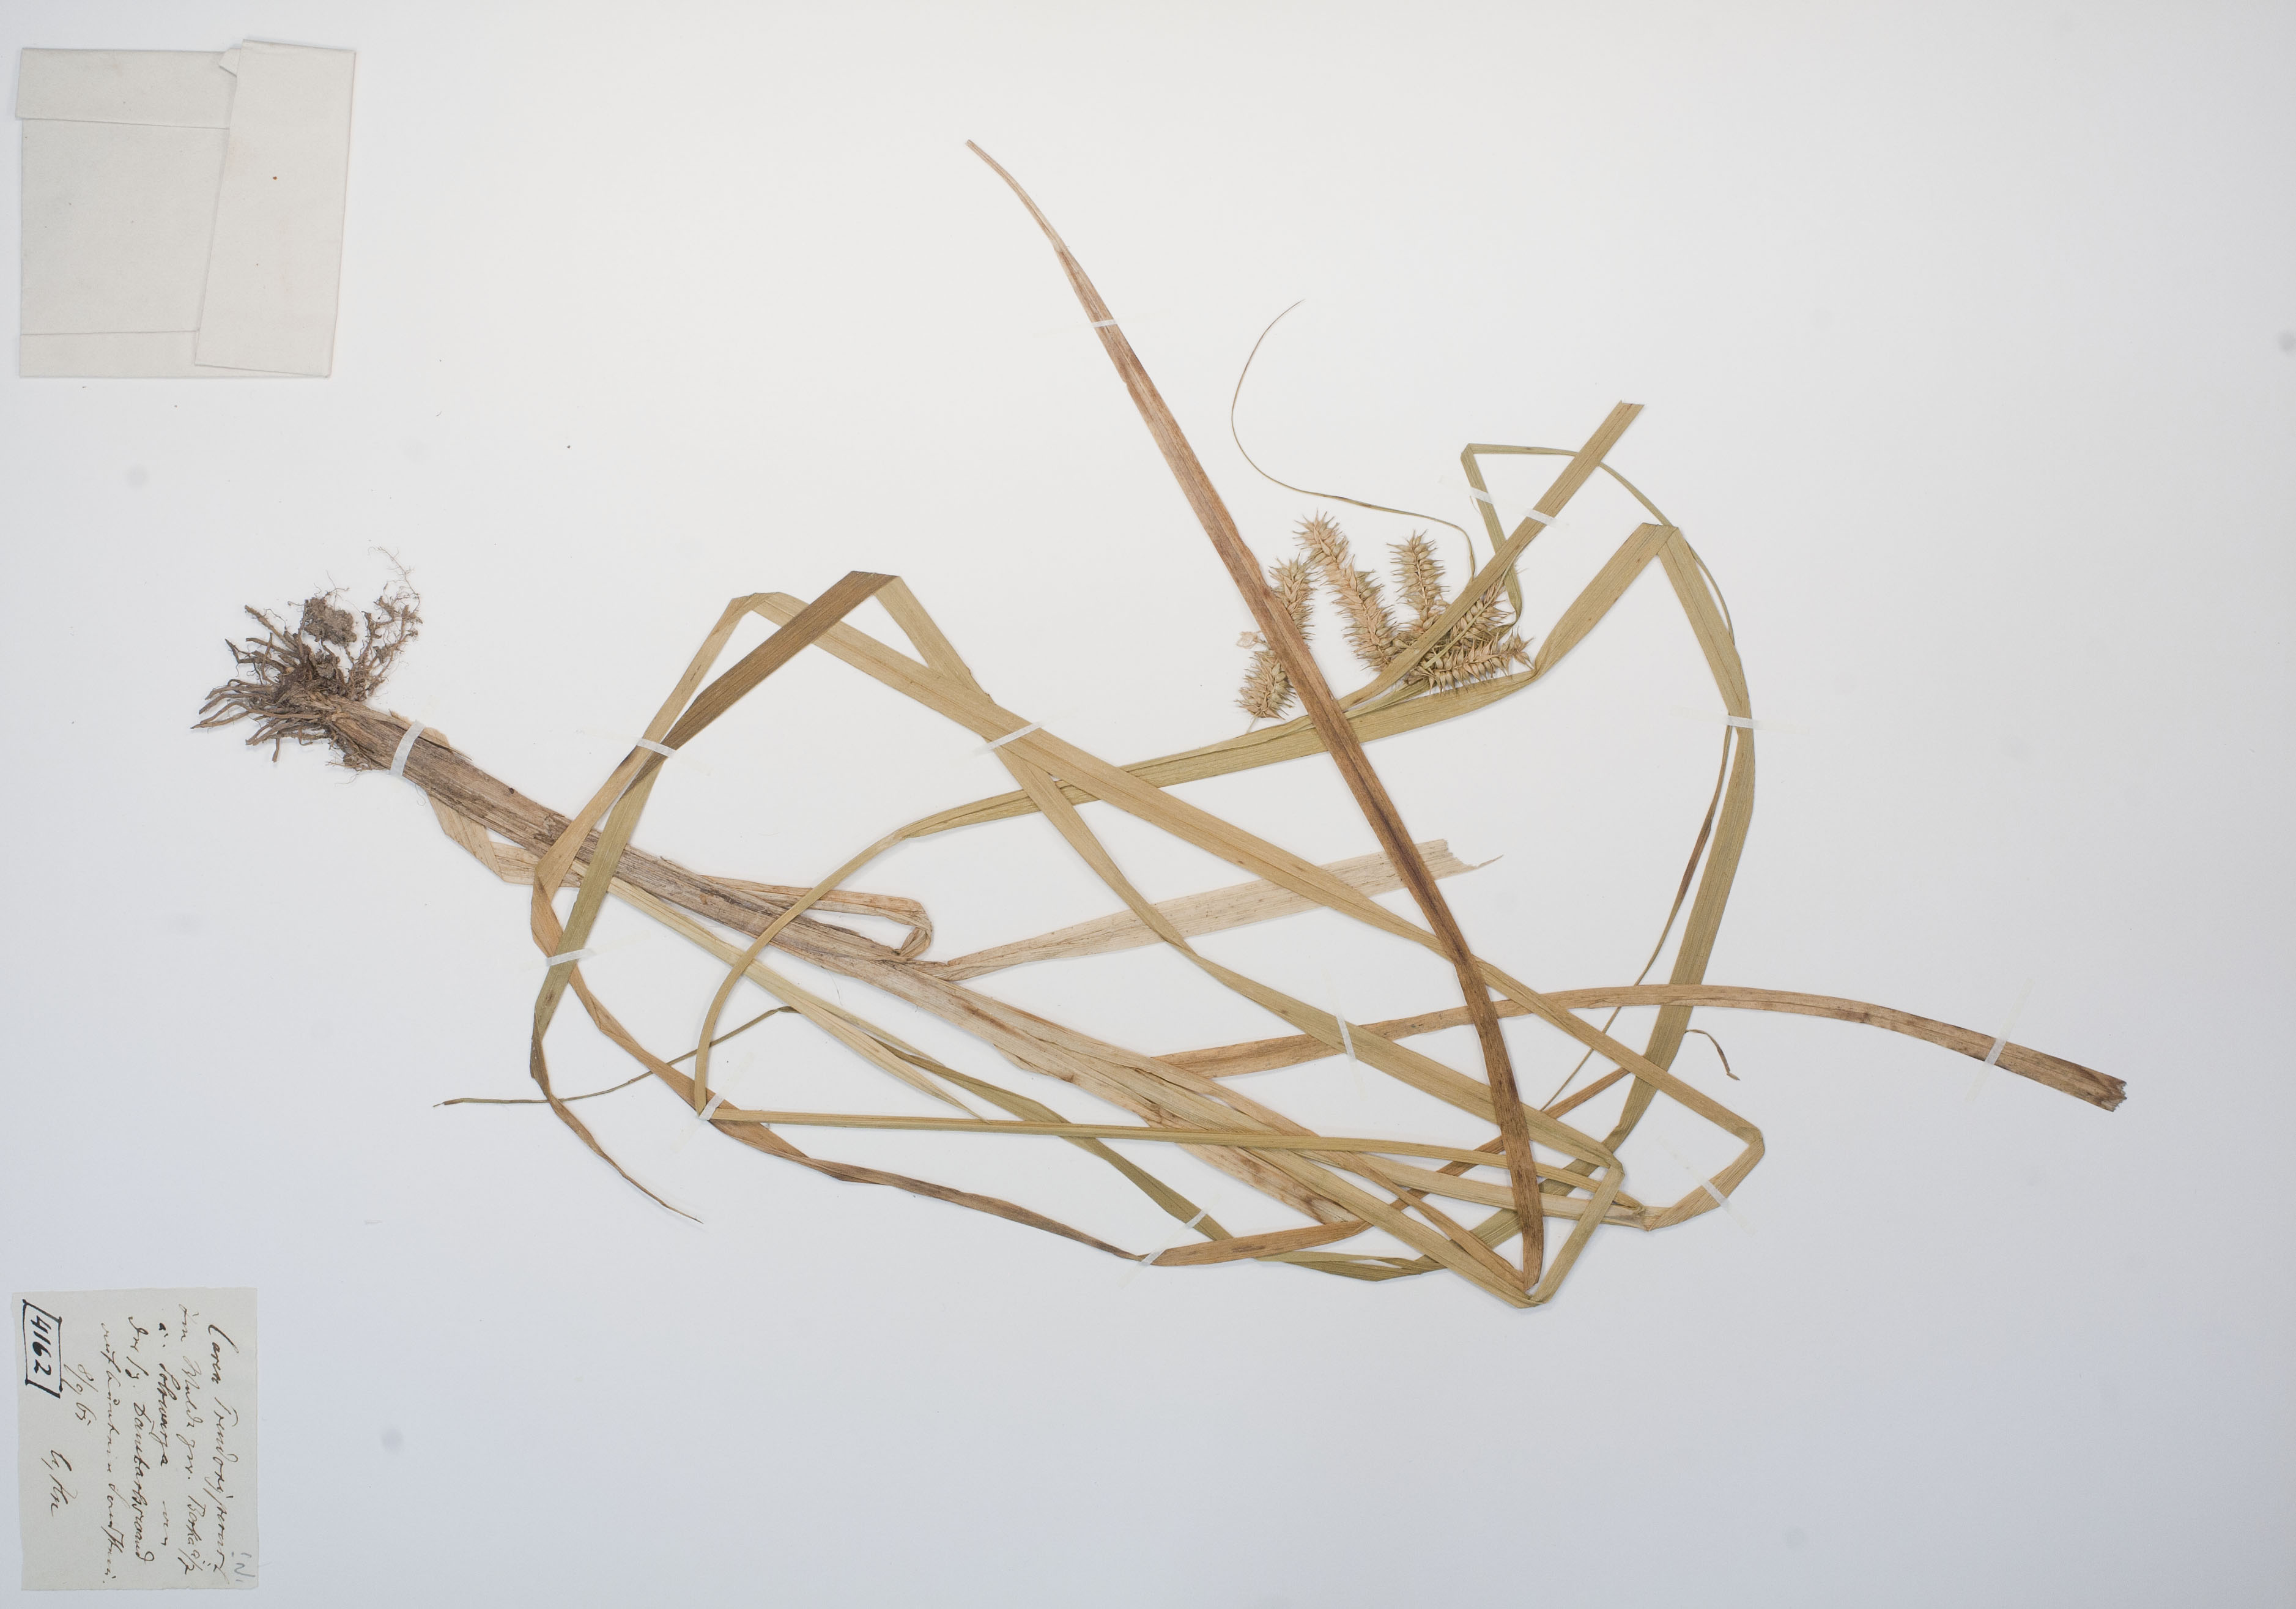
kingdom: Plantae
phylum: Tracheophyta
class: Liliopsida
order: Poales
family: Cyperaceae
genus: Carex
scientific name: Carex pseudocyperus
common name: Cyperus sedge
